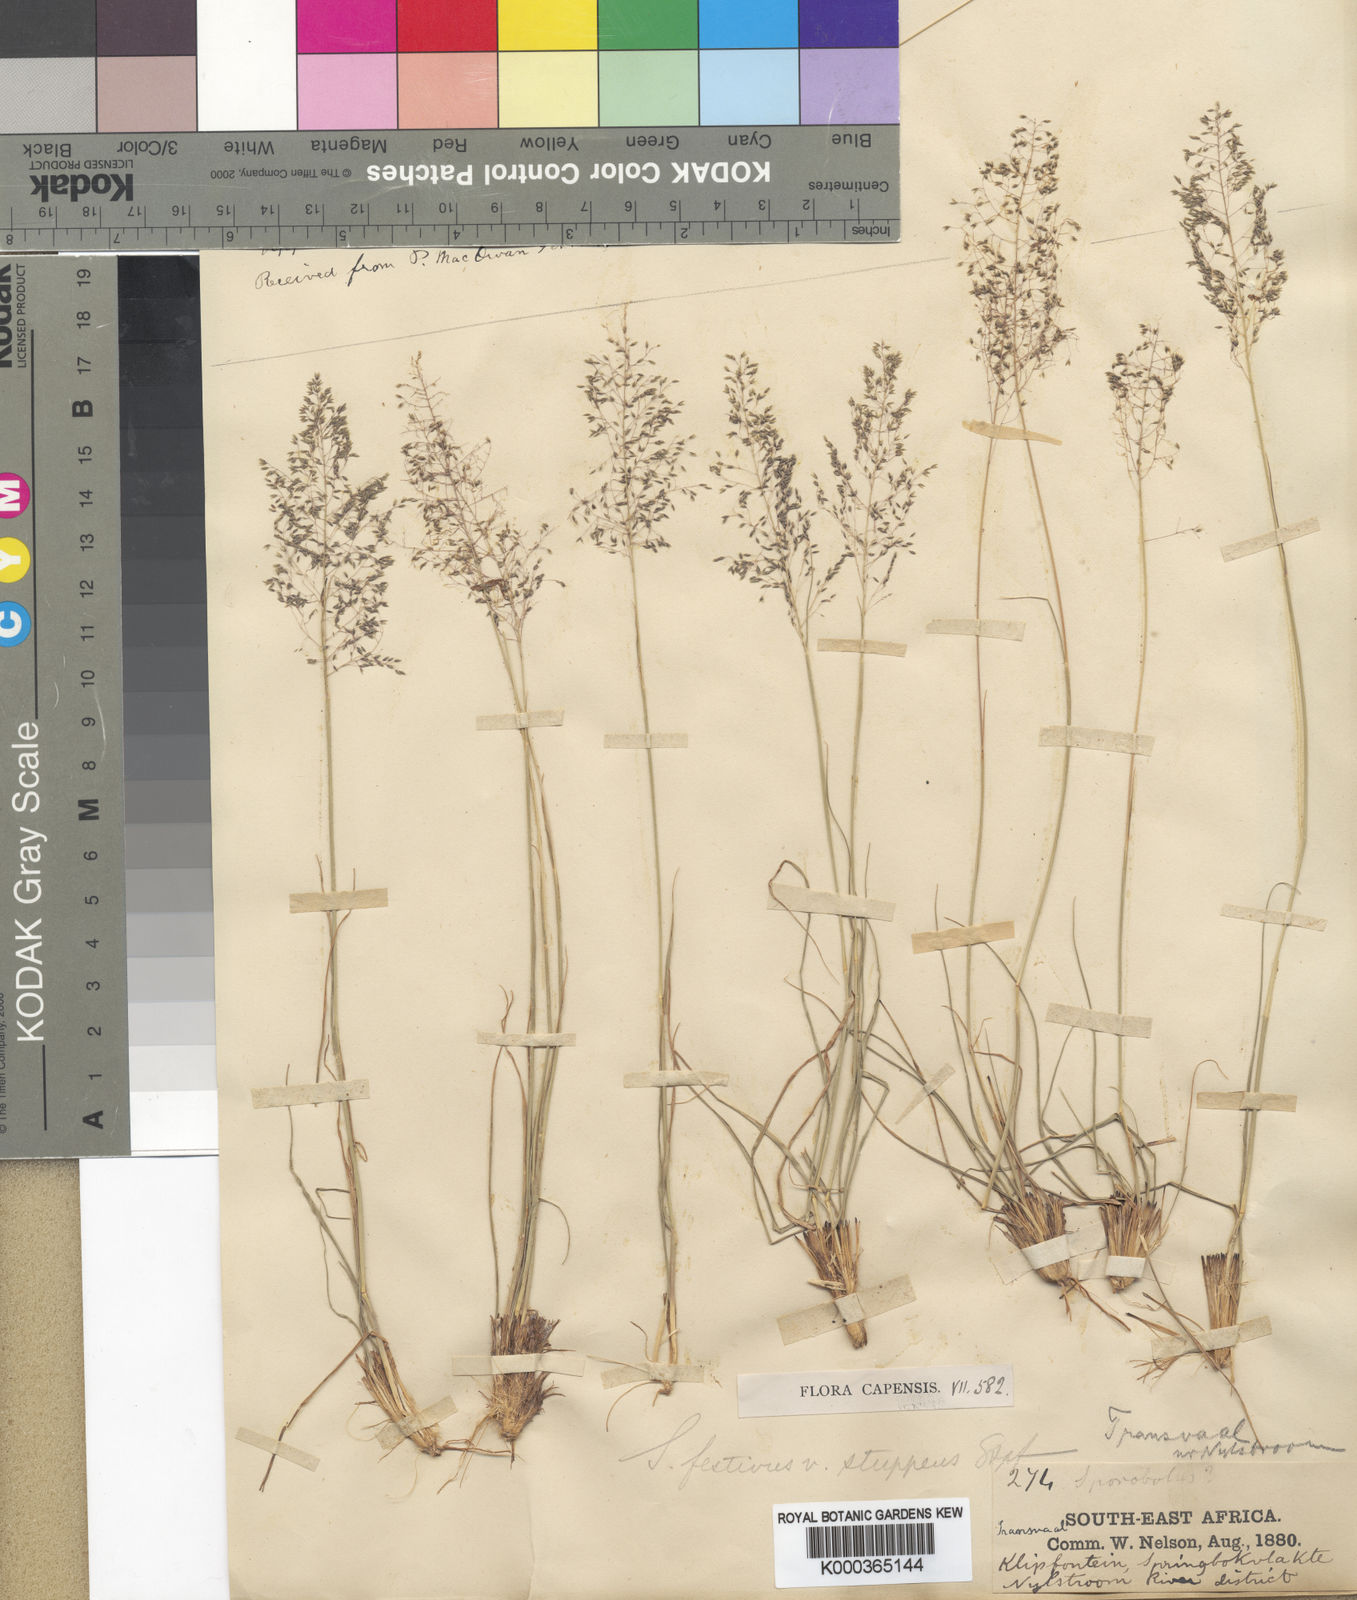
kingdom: Plantae
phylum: Tracheophyta
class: Liliopsida
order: Poales
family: Poaceae
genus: Sporobolus
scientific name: Sporobolus stapfianus
